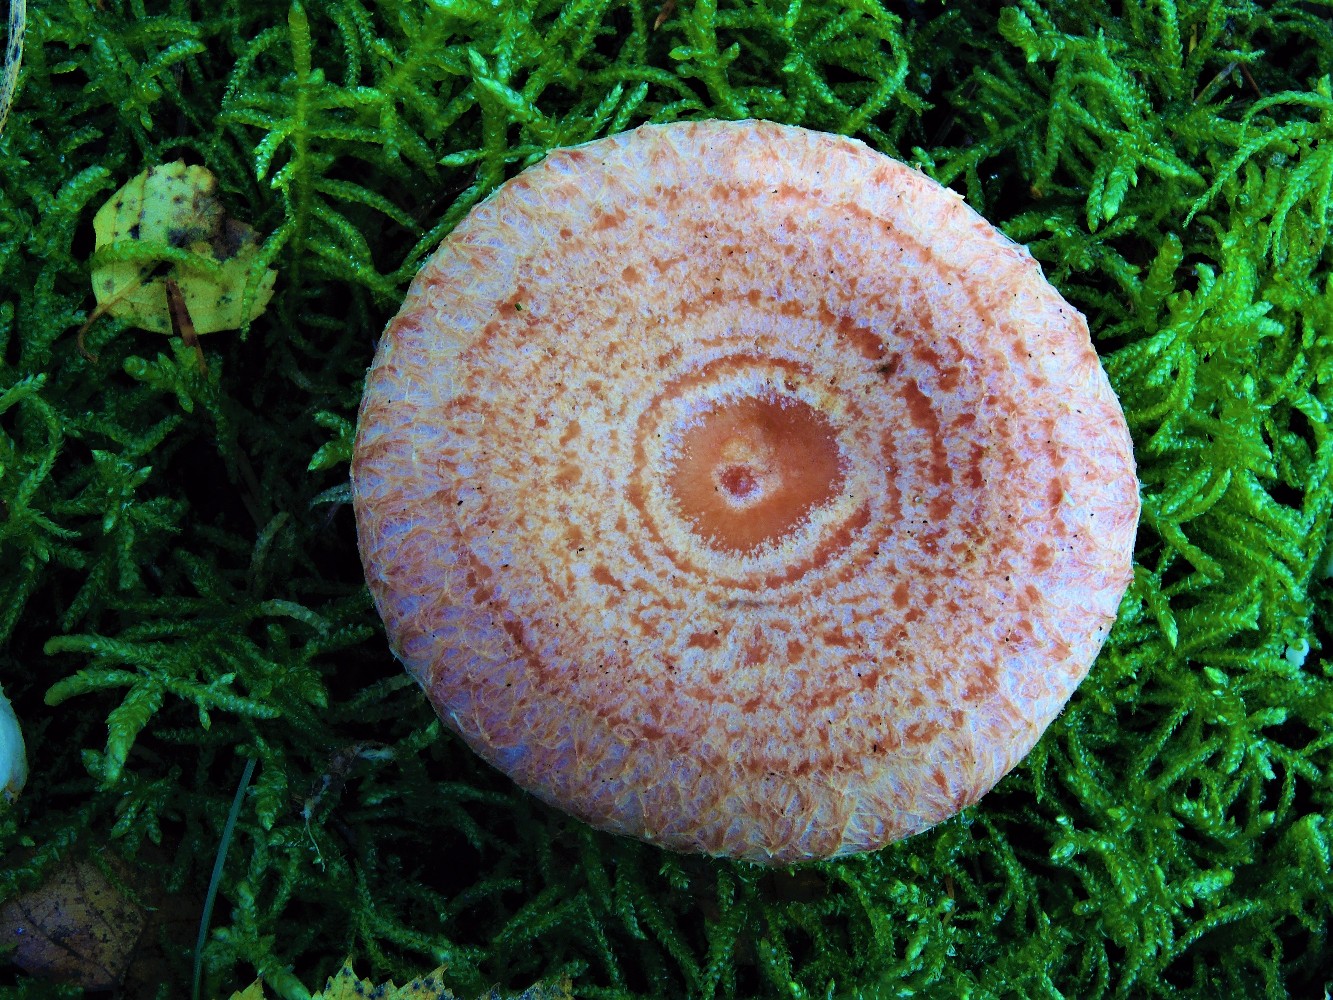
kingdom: Fungi
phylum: Basidiomycota
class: Agaricomycetes
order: Russulales
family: Russulaceae
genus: Lactarius
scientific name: Lactarius torminosus
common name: skægget mælkehat
